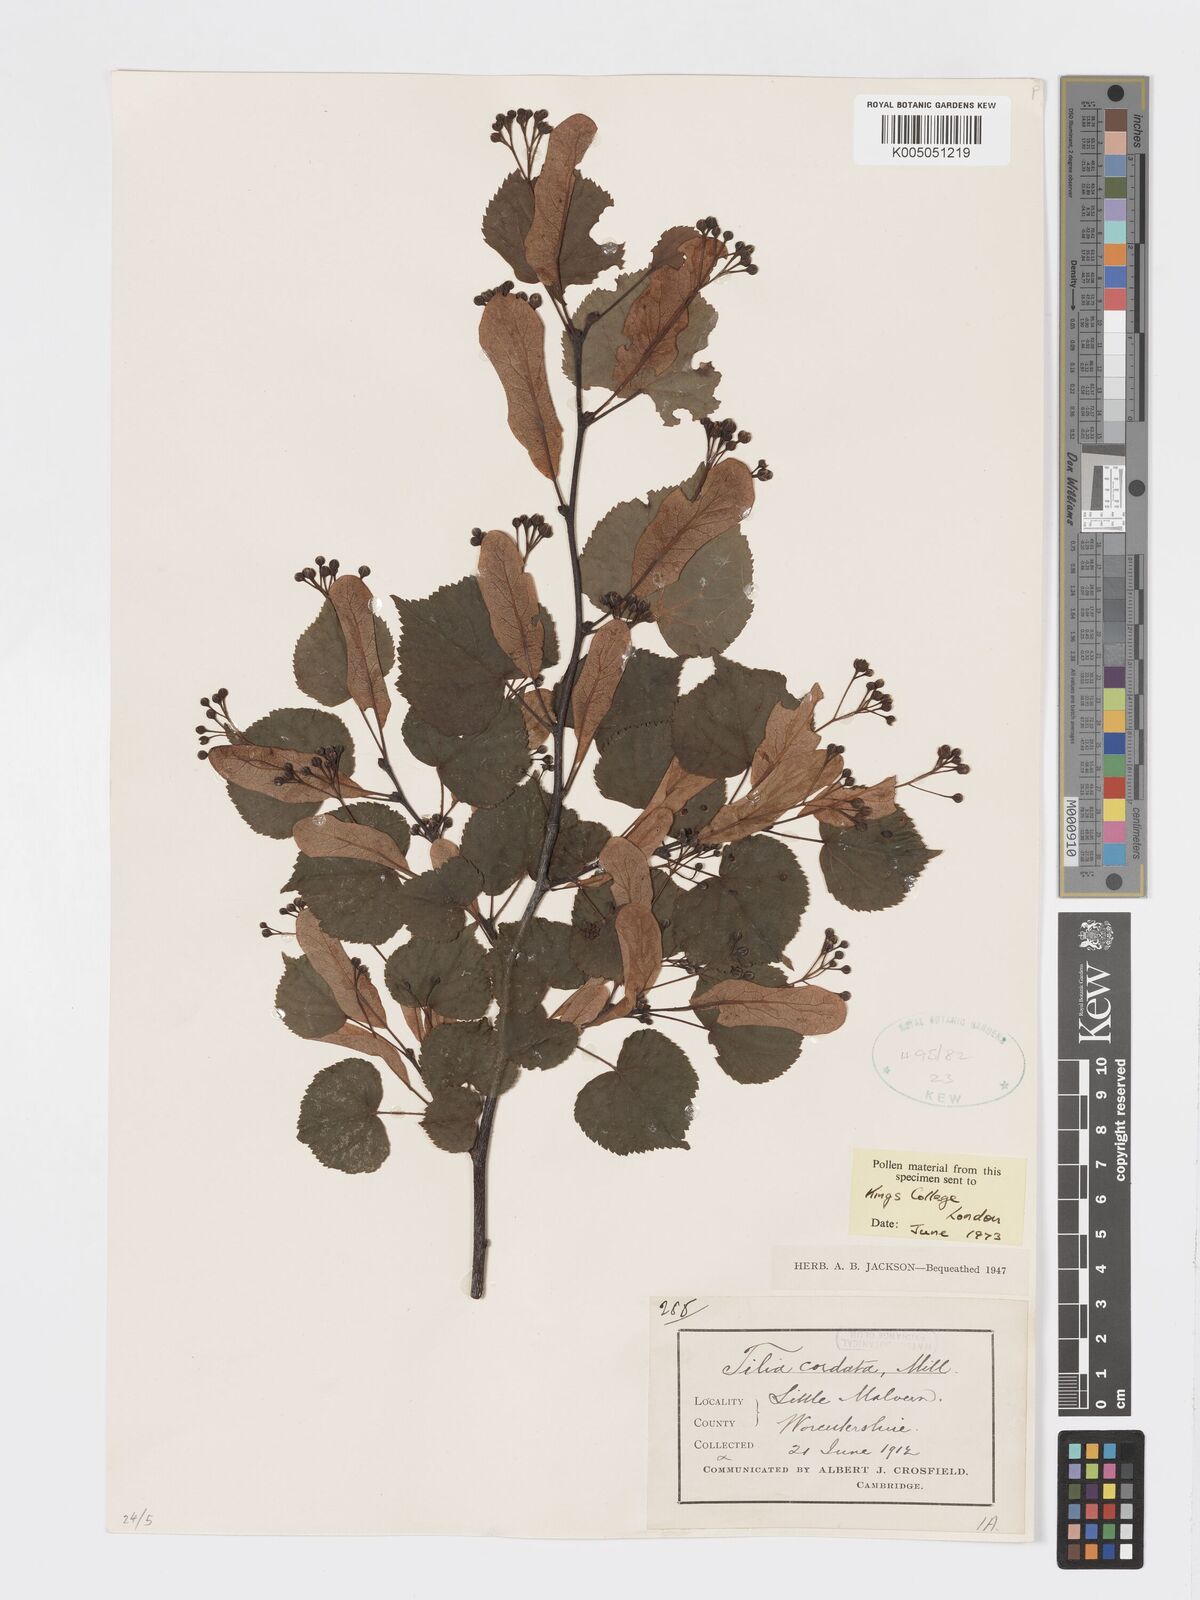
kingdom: Plantae
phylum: Tracheophyta
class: Magnoliopsida
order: Malvales
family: Malvaceae
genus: Tilia
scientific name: Tilia cordata
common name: Small-leaved lime
